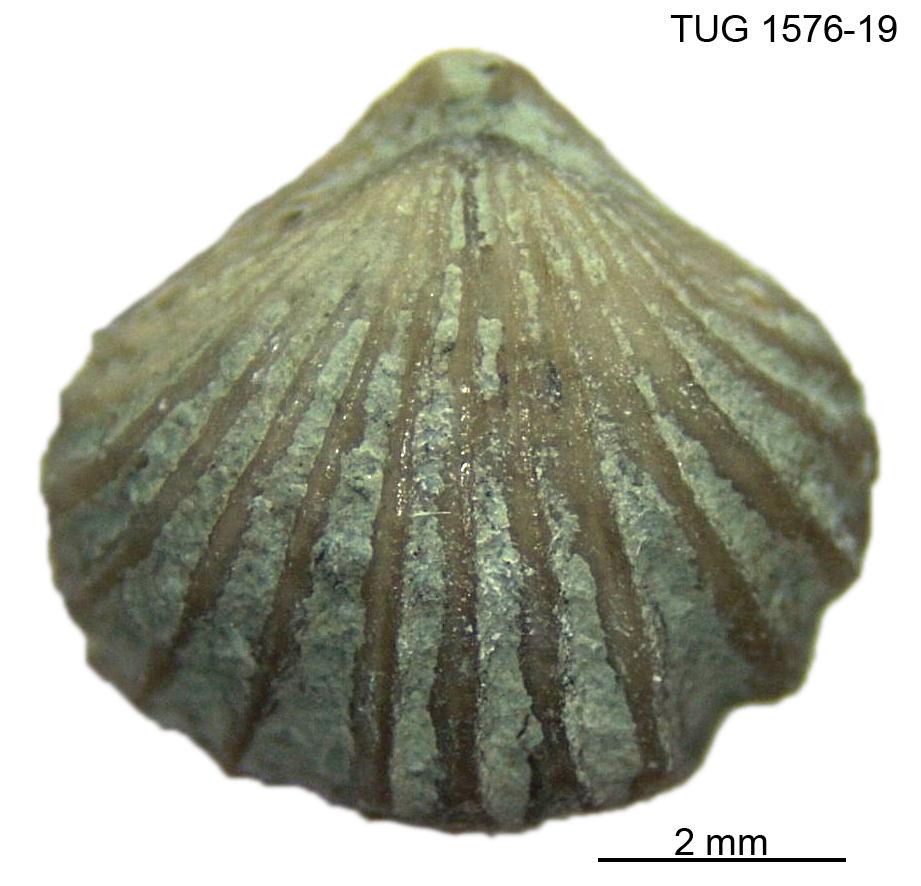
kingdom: Animalia
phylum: Brachiopoda
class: Rhynchonellata
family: Rhynchospirinidae
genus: Homoeospira
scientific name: Homoeospira Terebratula baylei
